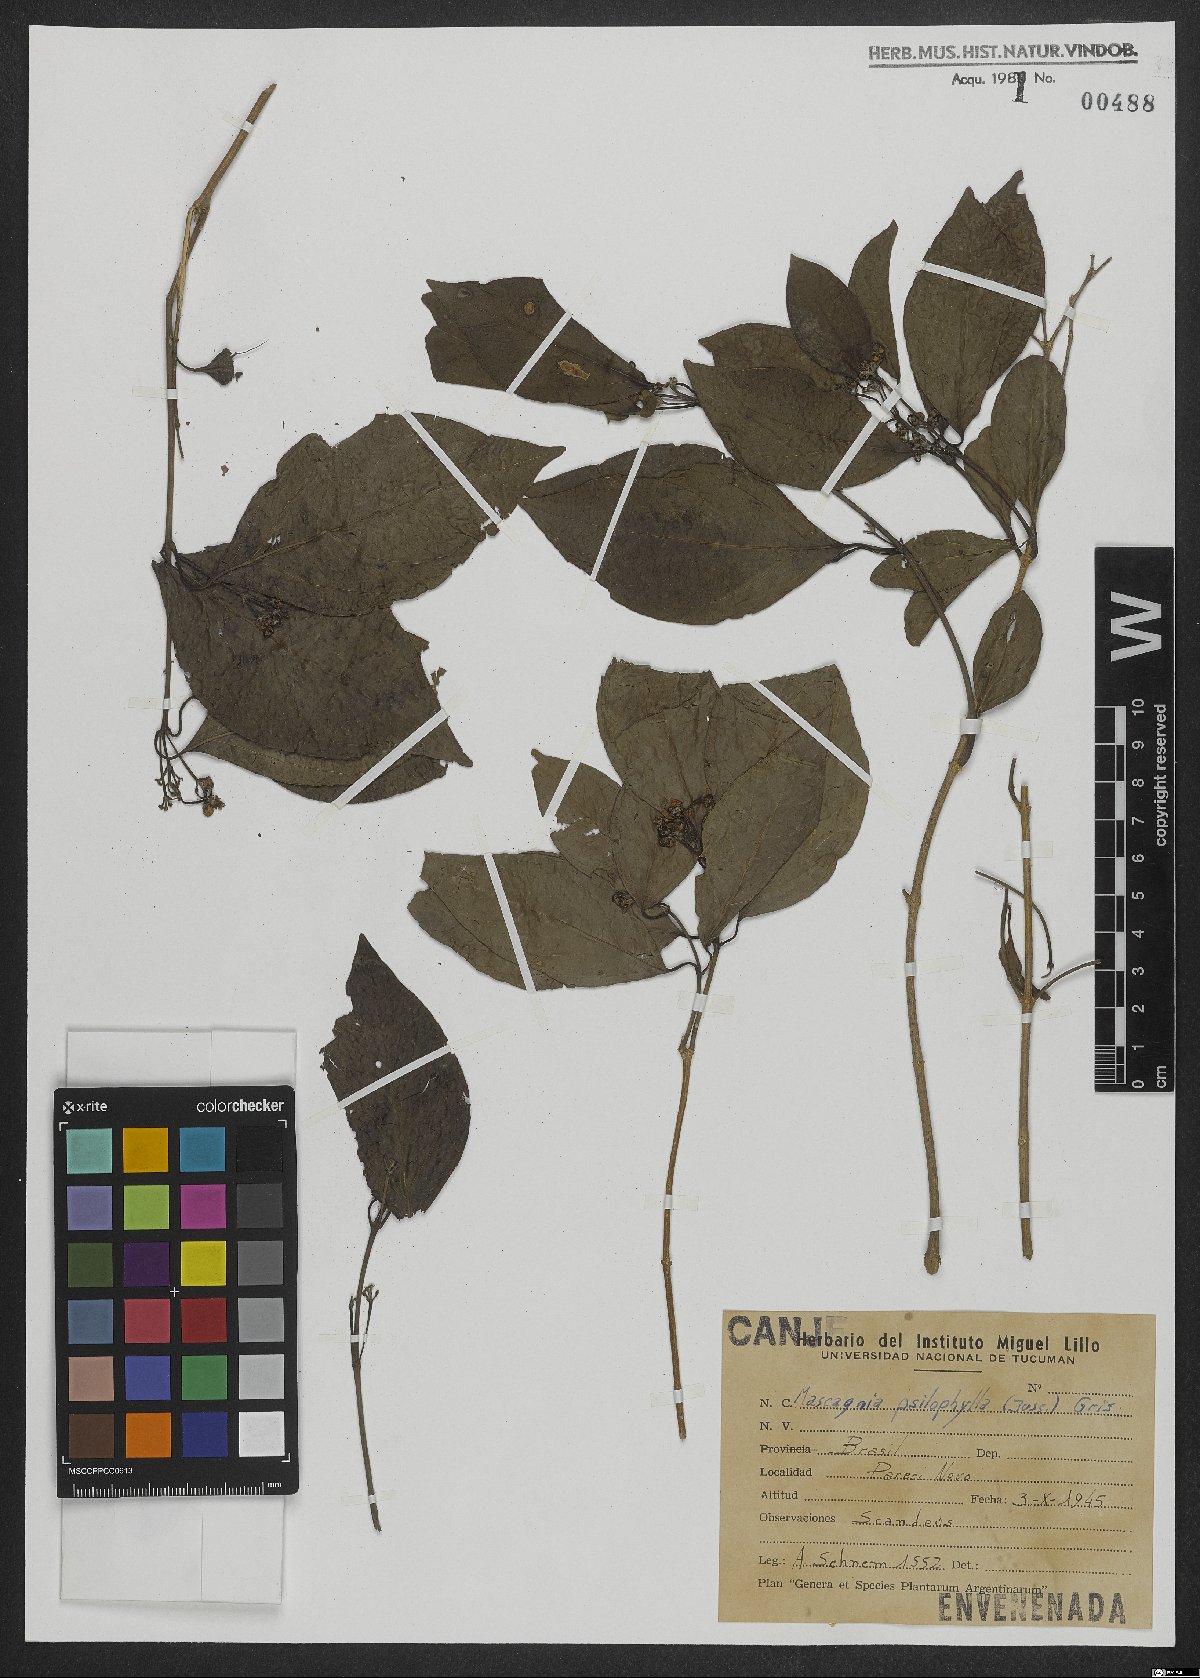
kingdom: Plantae
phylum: Tracheophyta
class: Magnoliopsida
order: Malpighiales
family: Malpighiaceae
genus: Callaeum
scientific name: Callaeum psilophyllum
